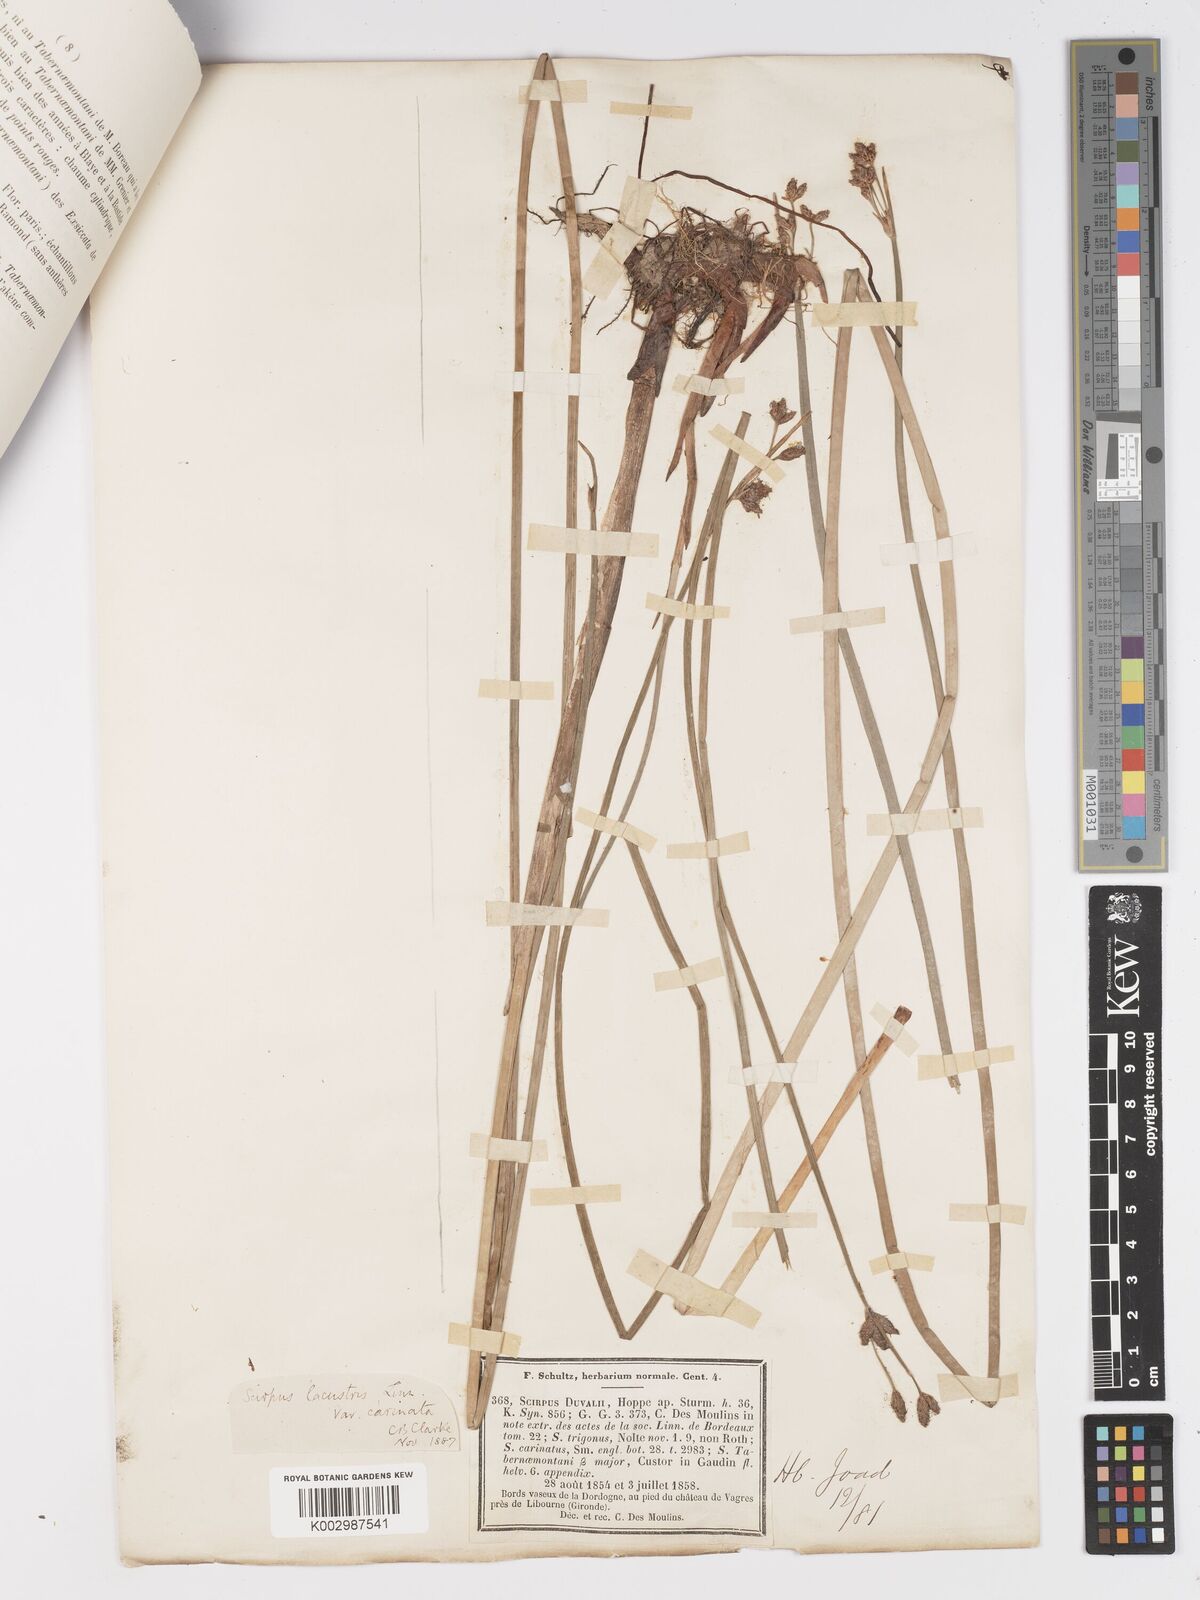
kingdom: Plantae
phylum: Tracheophyta
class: Liliopsida
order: Poales
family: Cyperaceae
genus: Schoenoplectus
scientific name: Schoenoplectus lacustris
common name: Common club-rush
